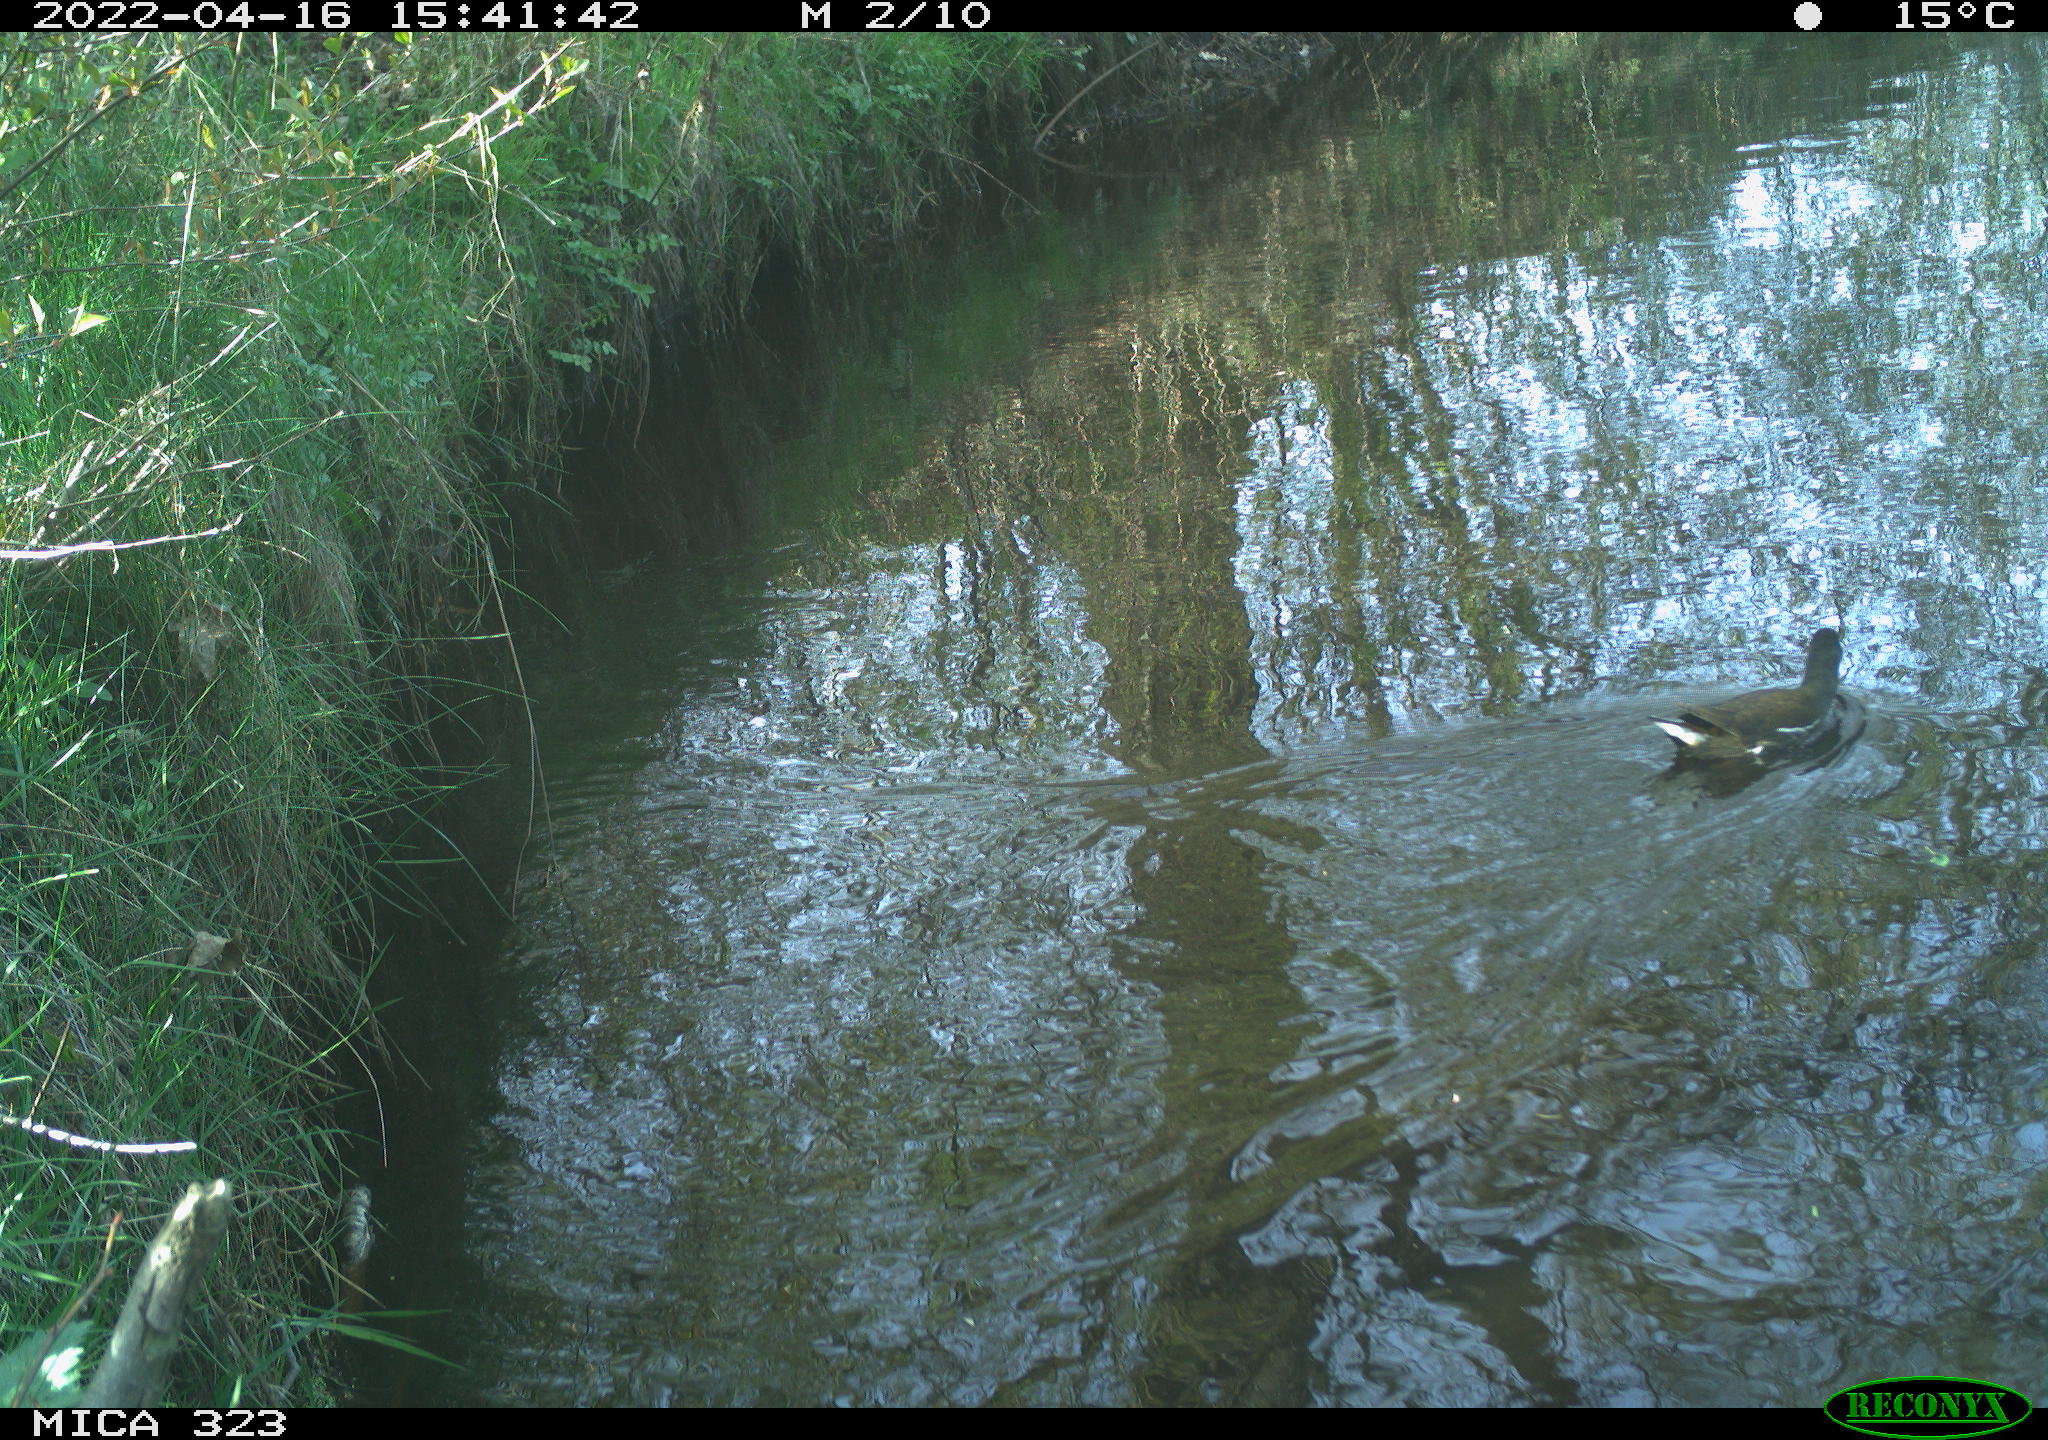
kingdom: Animalia
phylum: Chordata
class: Aves
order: Gruiformes
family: Rallidae
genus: Gallinula
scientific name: Gallinula chloropus
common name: Common moorhen
